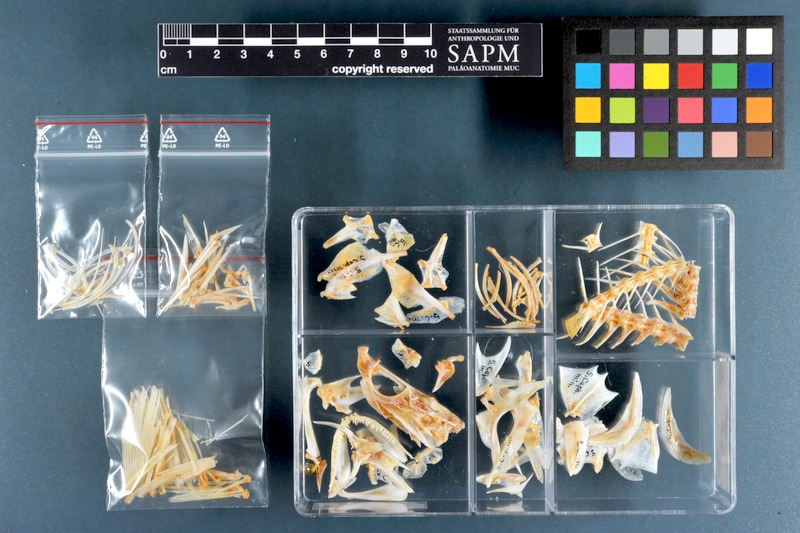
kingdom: Animalia
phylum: Chordata
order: Perciformes
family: Serranidae
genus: Cephalopholis
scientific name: Cephalopholis miniata
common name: Coral hind
